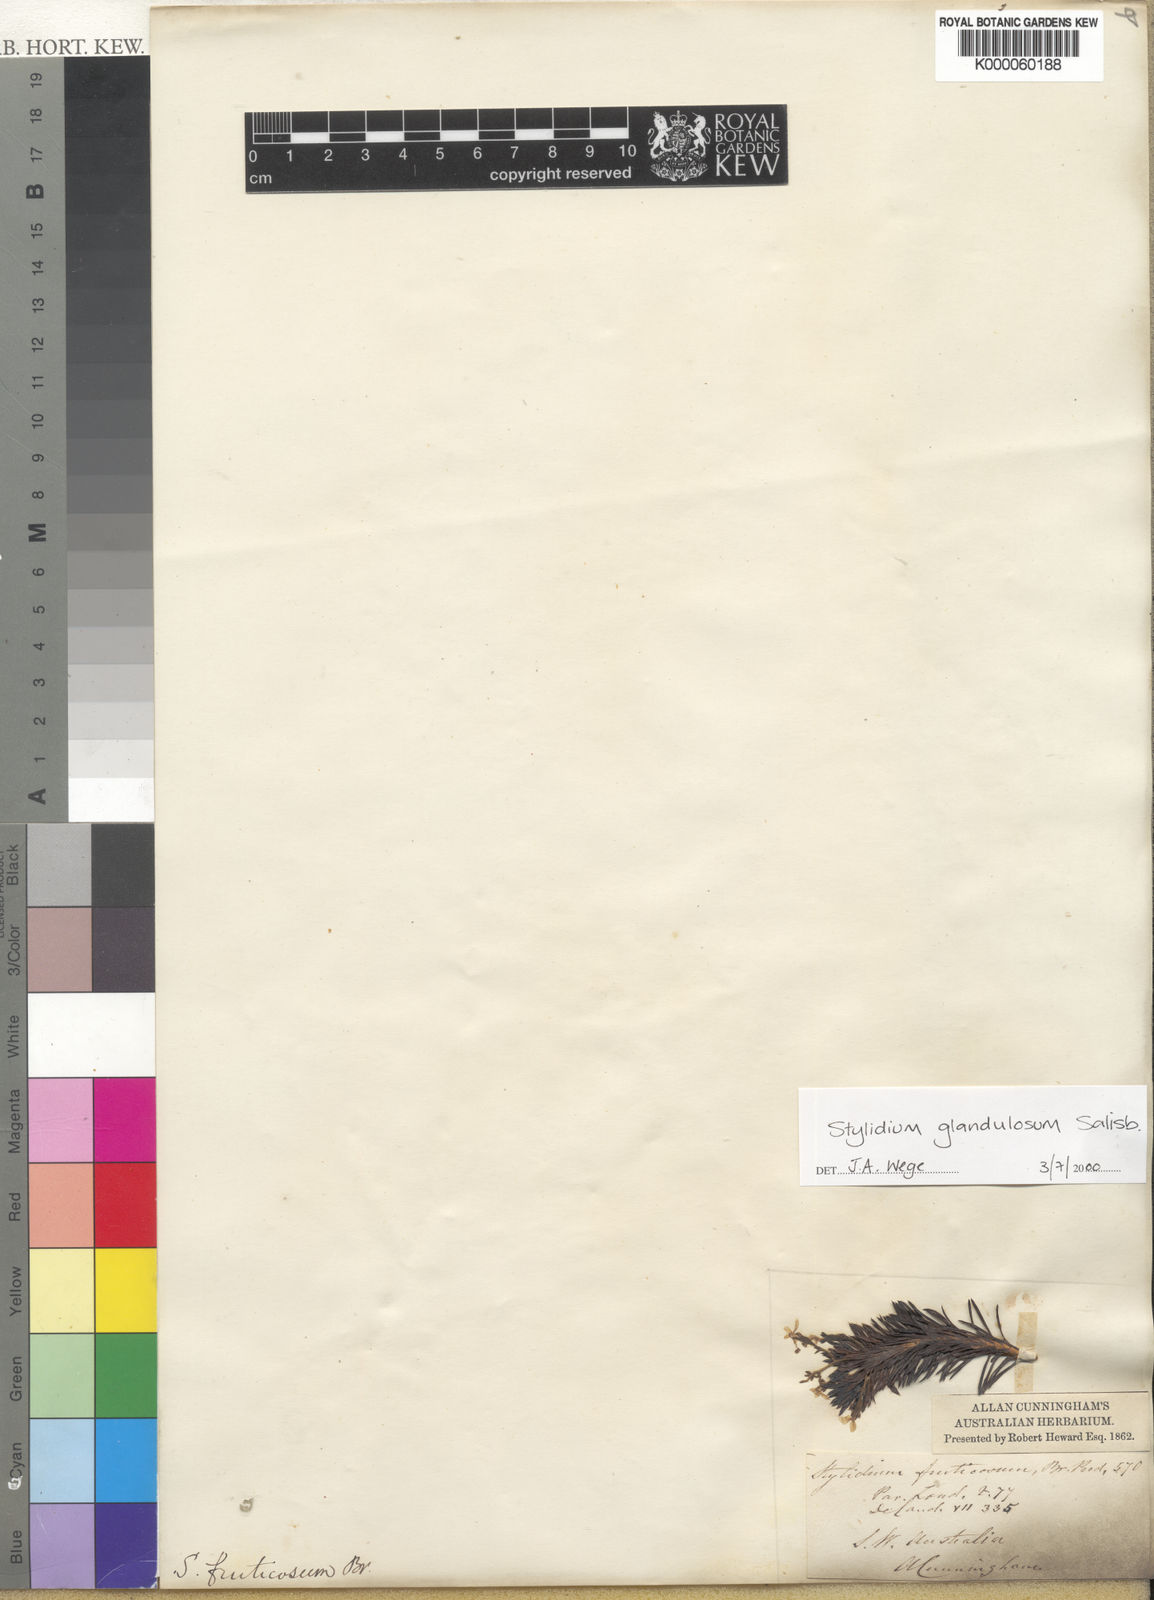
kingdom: Plantae
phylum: Tracheophyta
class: Magnoliopsida
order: Asterales
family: Stylidiaceae
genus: Stylidium
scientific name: Stylidium glandulosum
